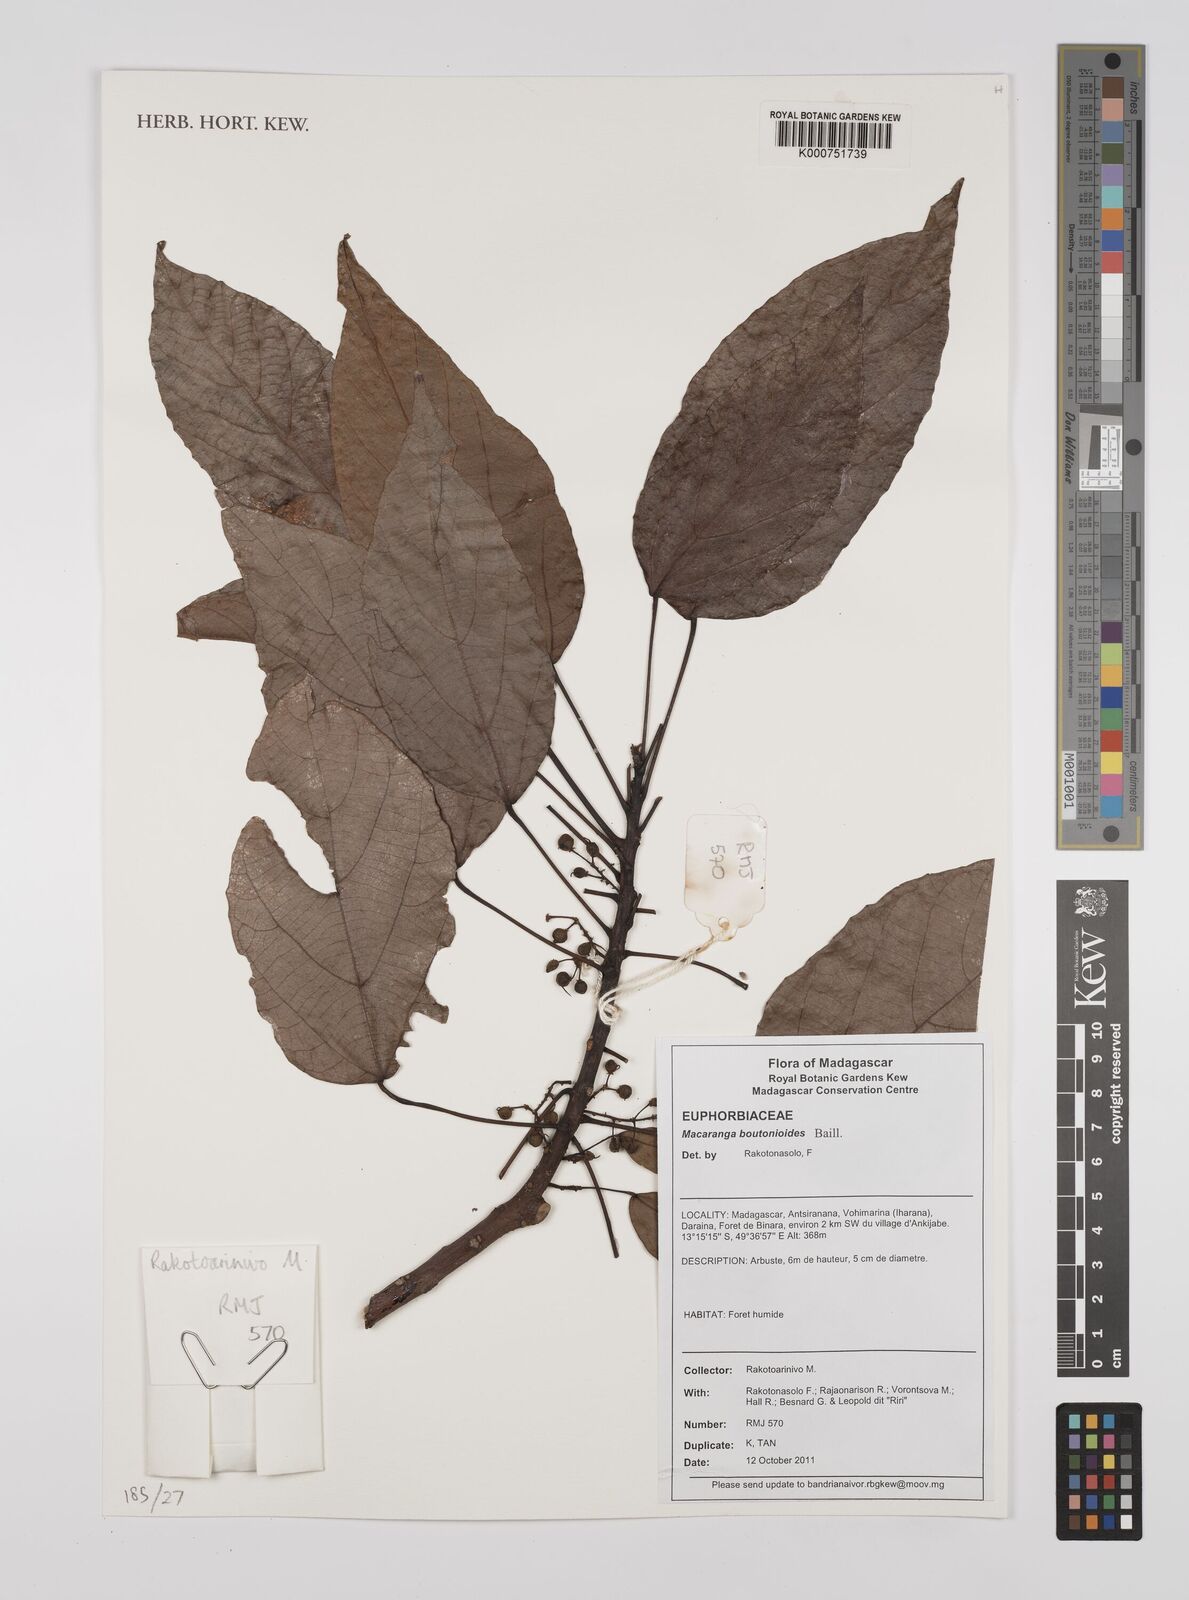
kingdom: Plantae
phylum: Tracheophyta
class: Magnoliopsida
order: Malpighiales
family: Euphorbiaceae
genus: Macaranga
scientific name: Macaranga boutonioides
